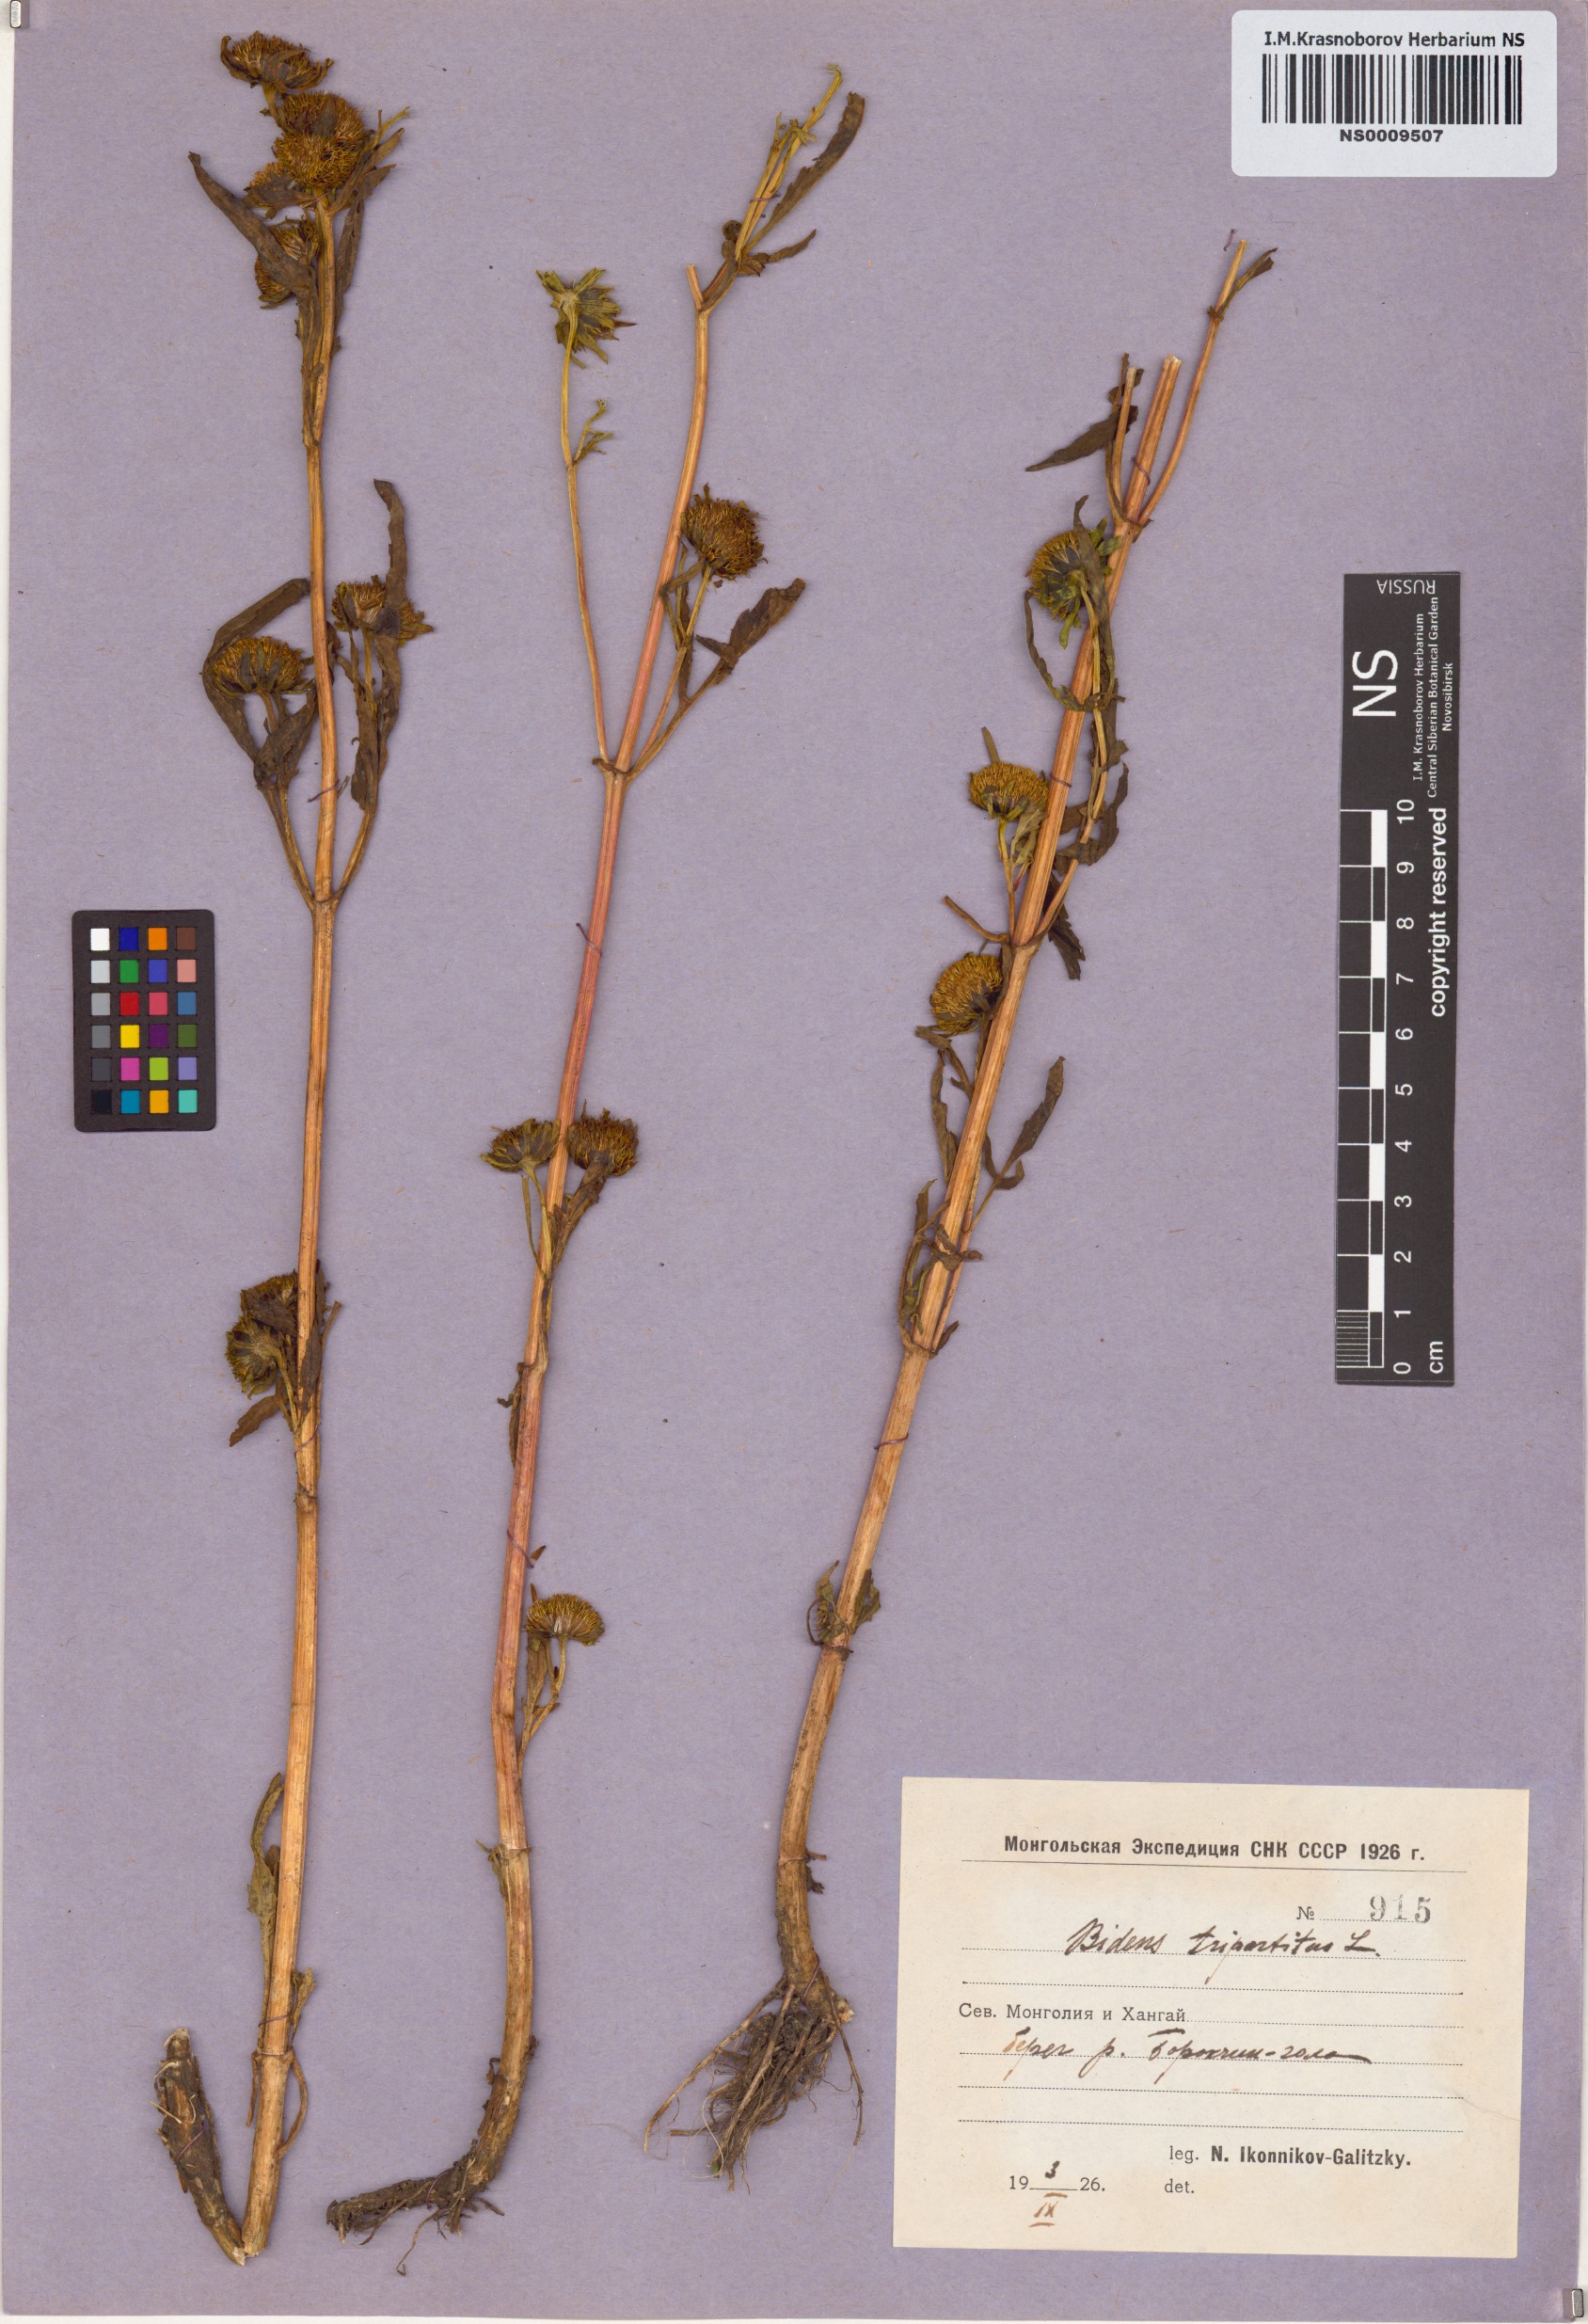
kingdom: Plantae
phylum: Tracheophyta
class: Magnoliopsida
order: Asterales
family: Asteraceae
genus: Bidens
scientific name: Bidens tripartita
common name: Trifid bur-marigold
